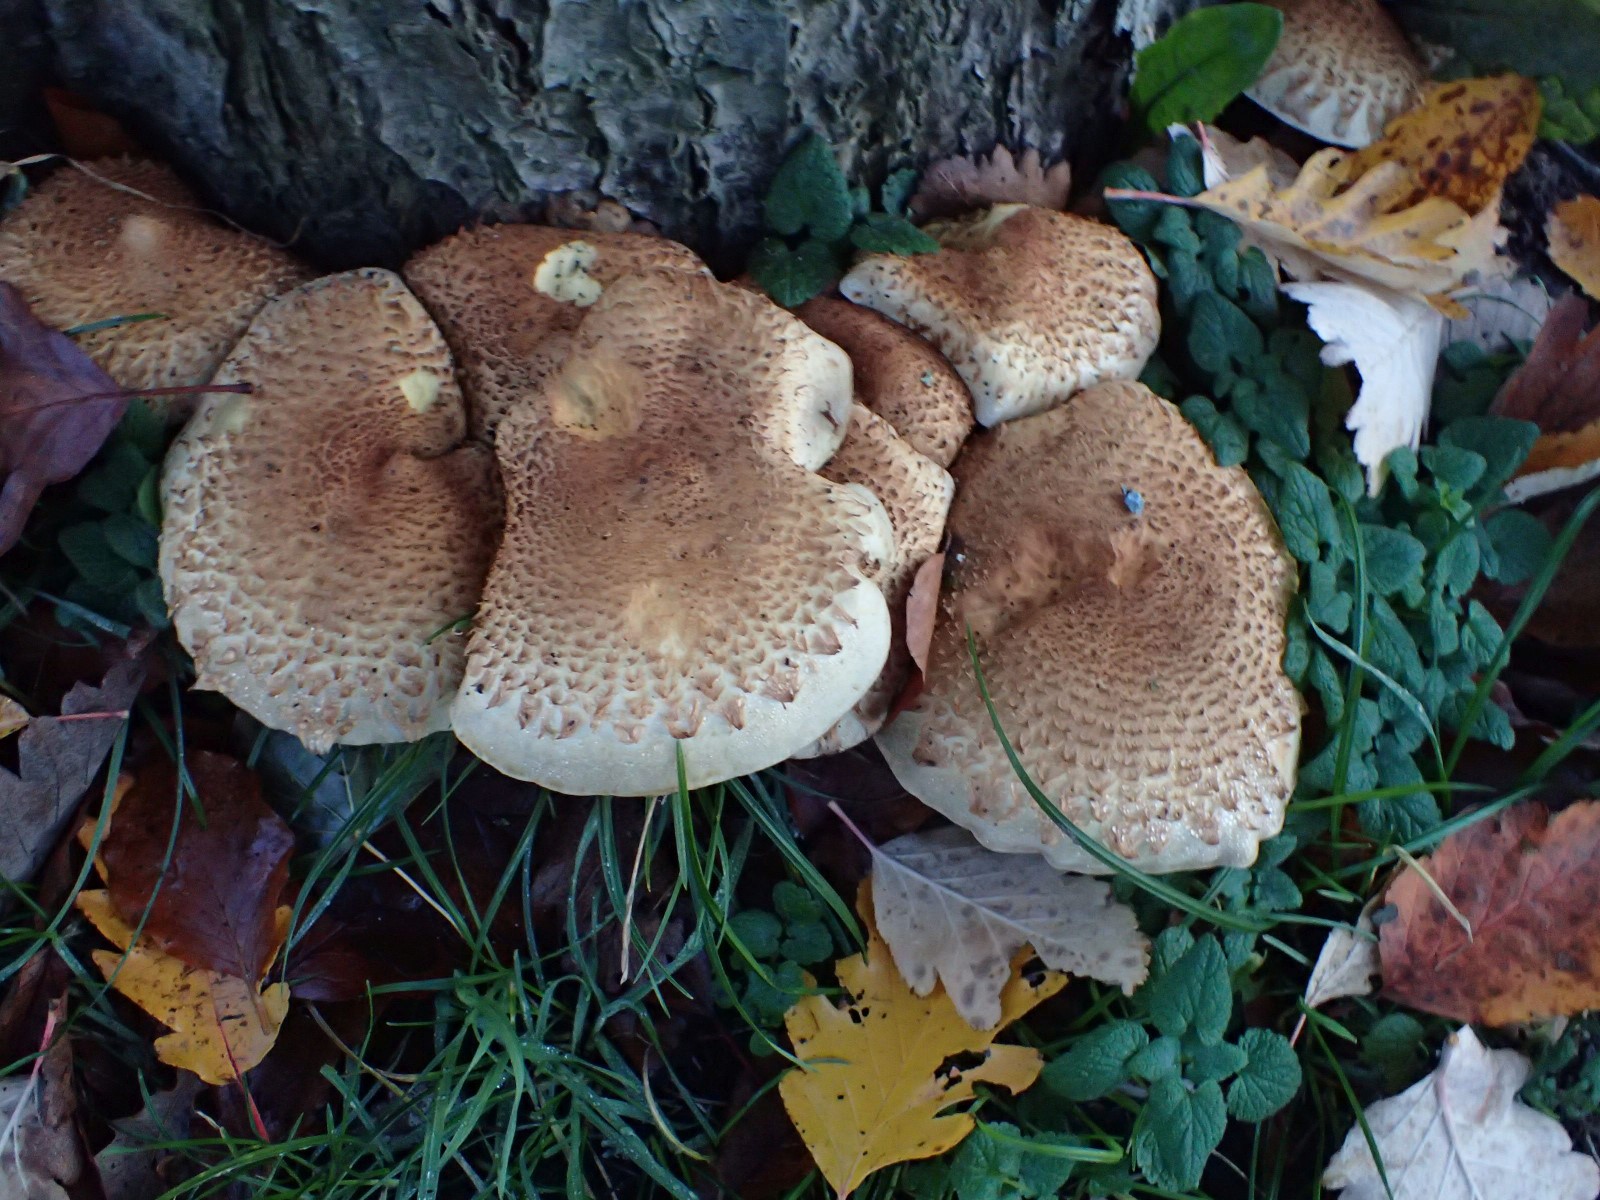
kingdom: Fungi
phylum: Basidiomycota
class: Agaricomycetes
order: Agaricales
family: Strophariaceae
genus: Pholiota
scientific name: Pholiota squarrosa
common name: krumskællet skælhat
